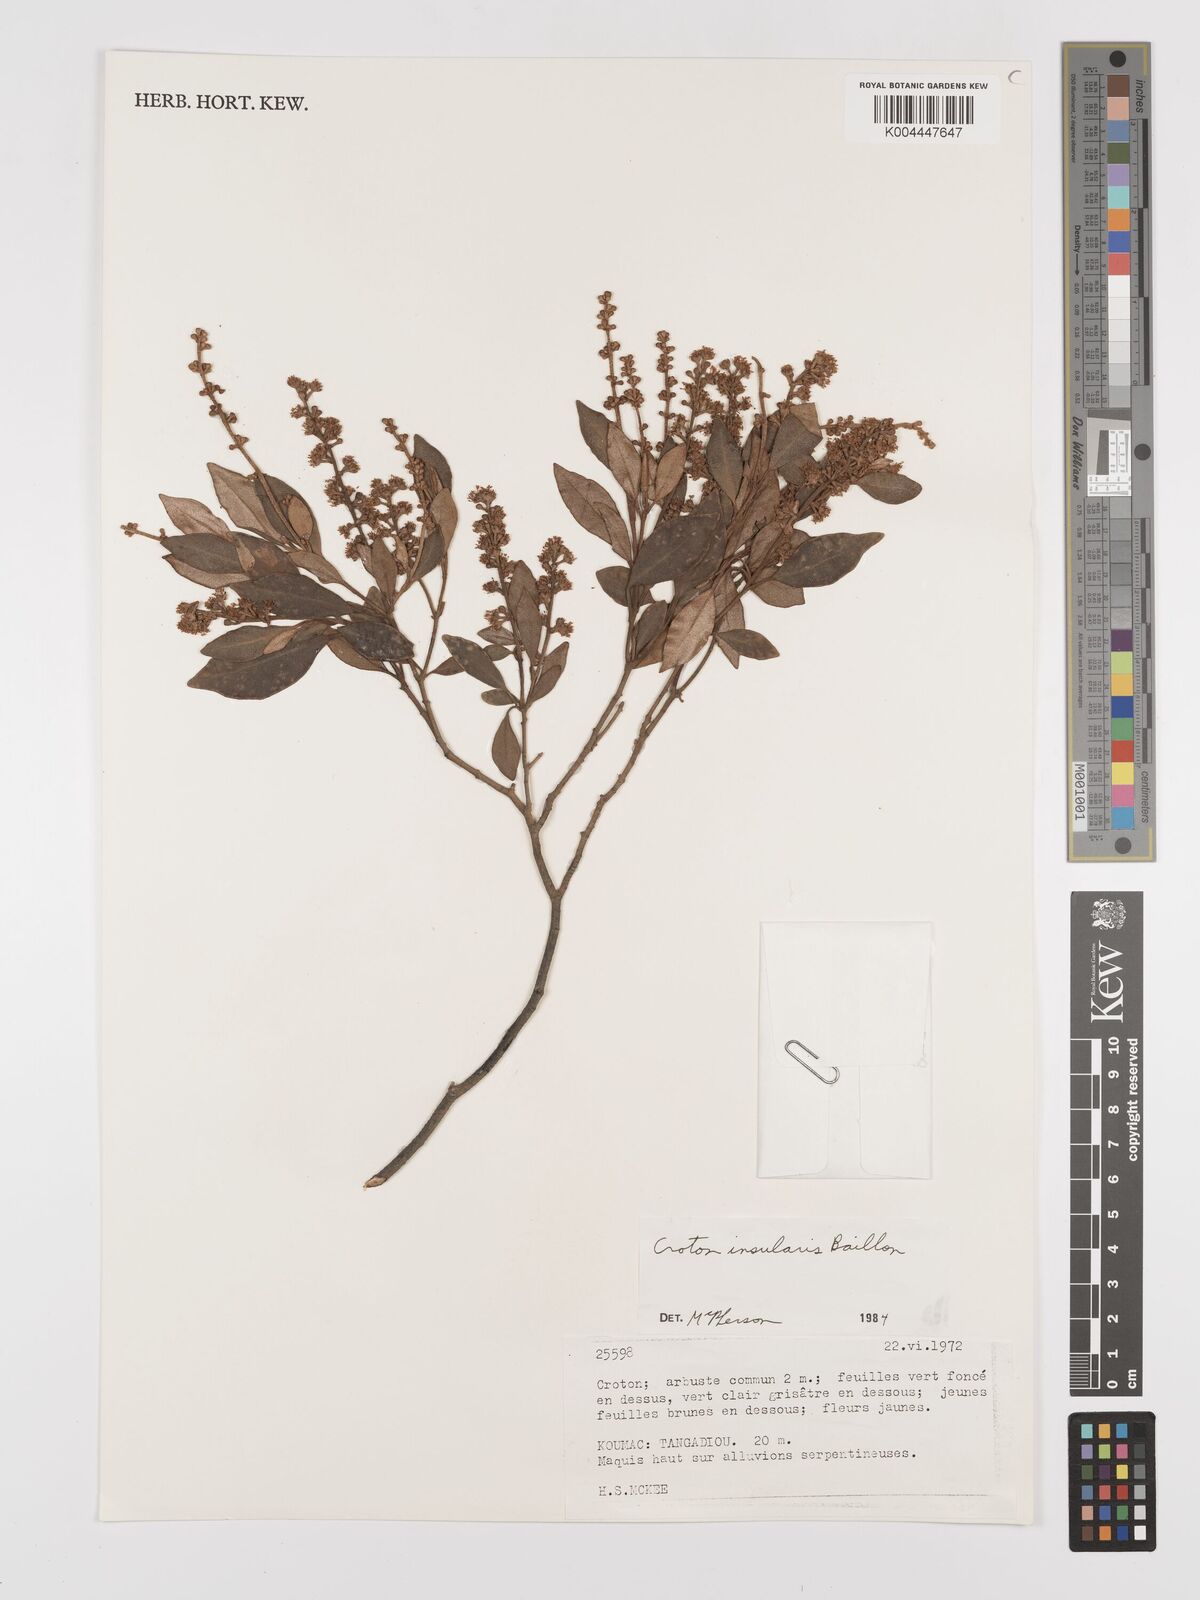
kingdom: Plantae
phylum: Tracheophyta
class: Magnoliopsida
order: Malpighiales
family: Euphorbiaceae
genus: Croton
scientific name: Croton insularis
